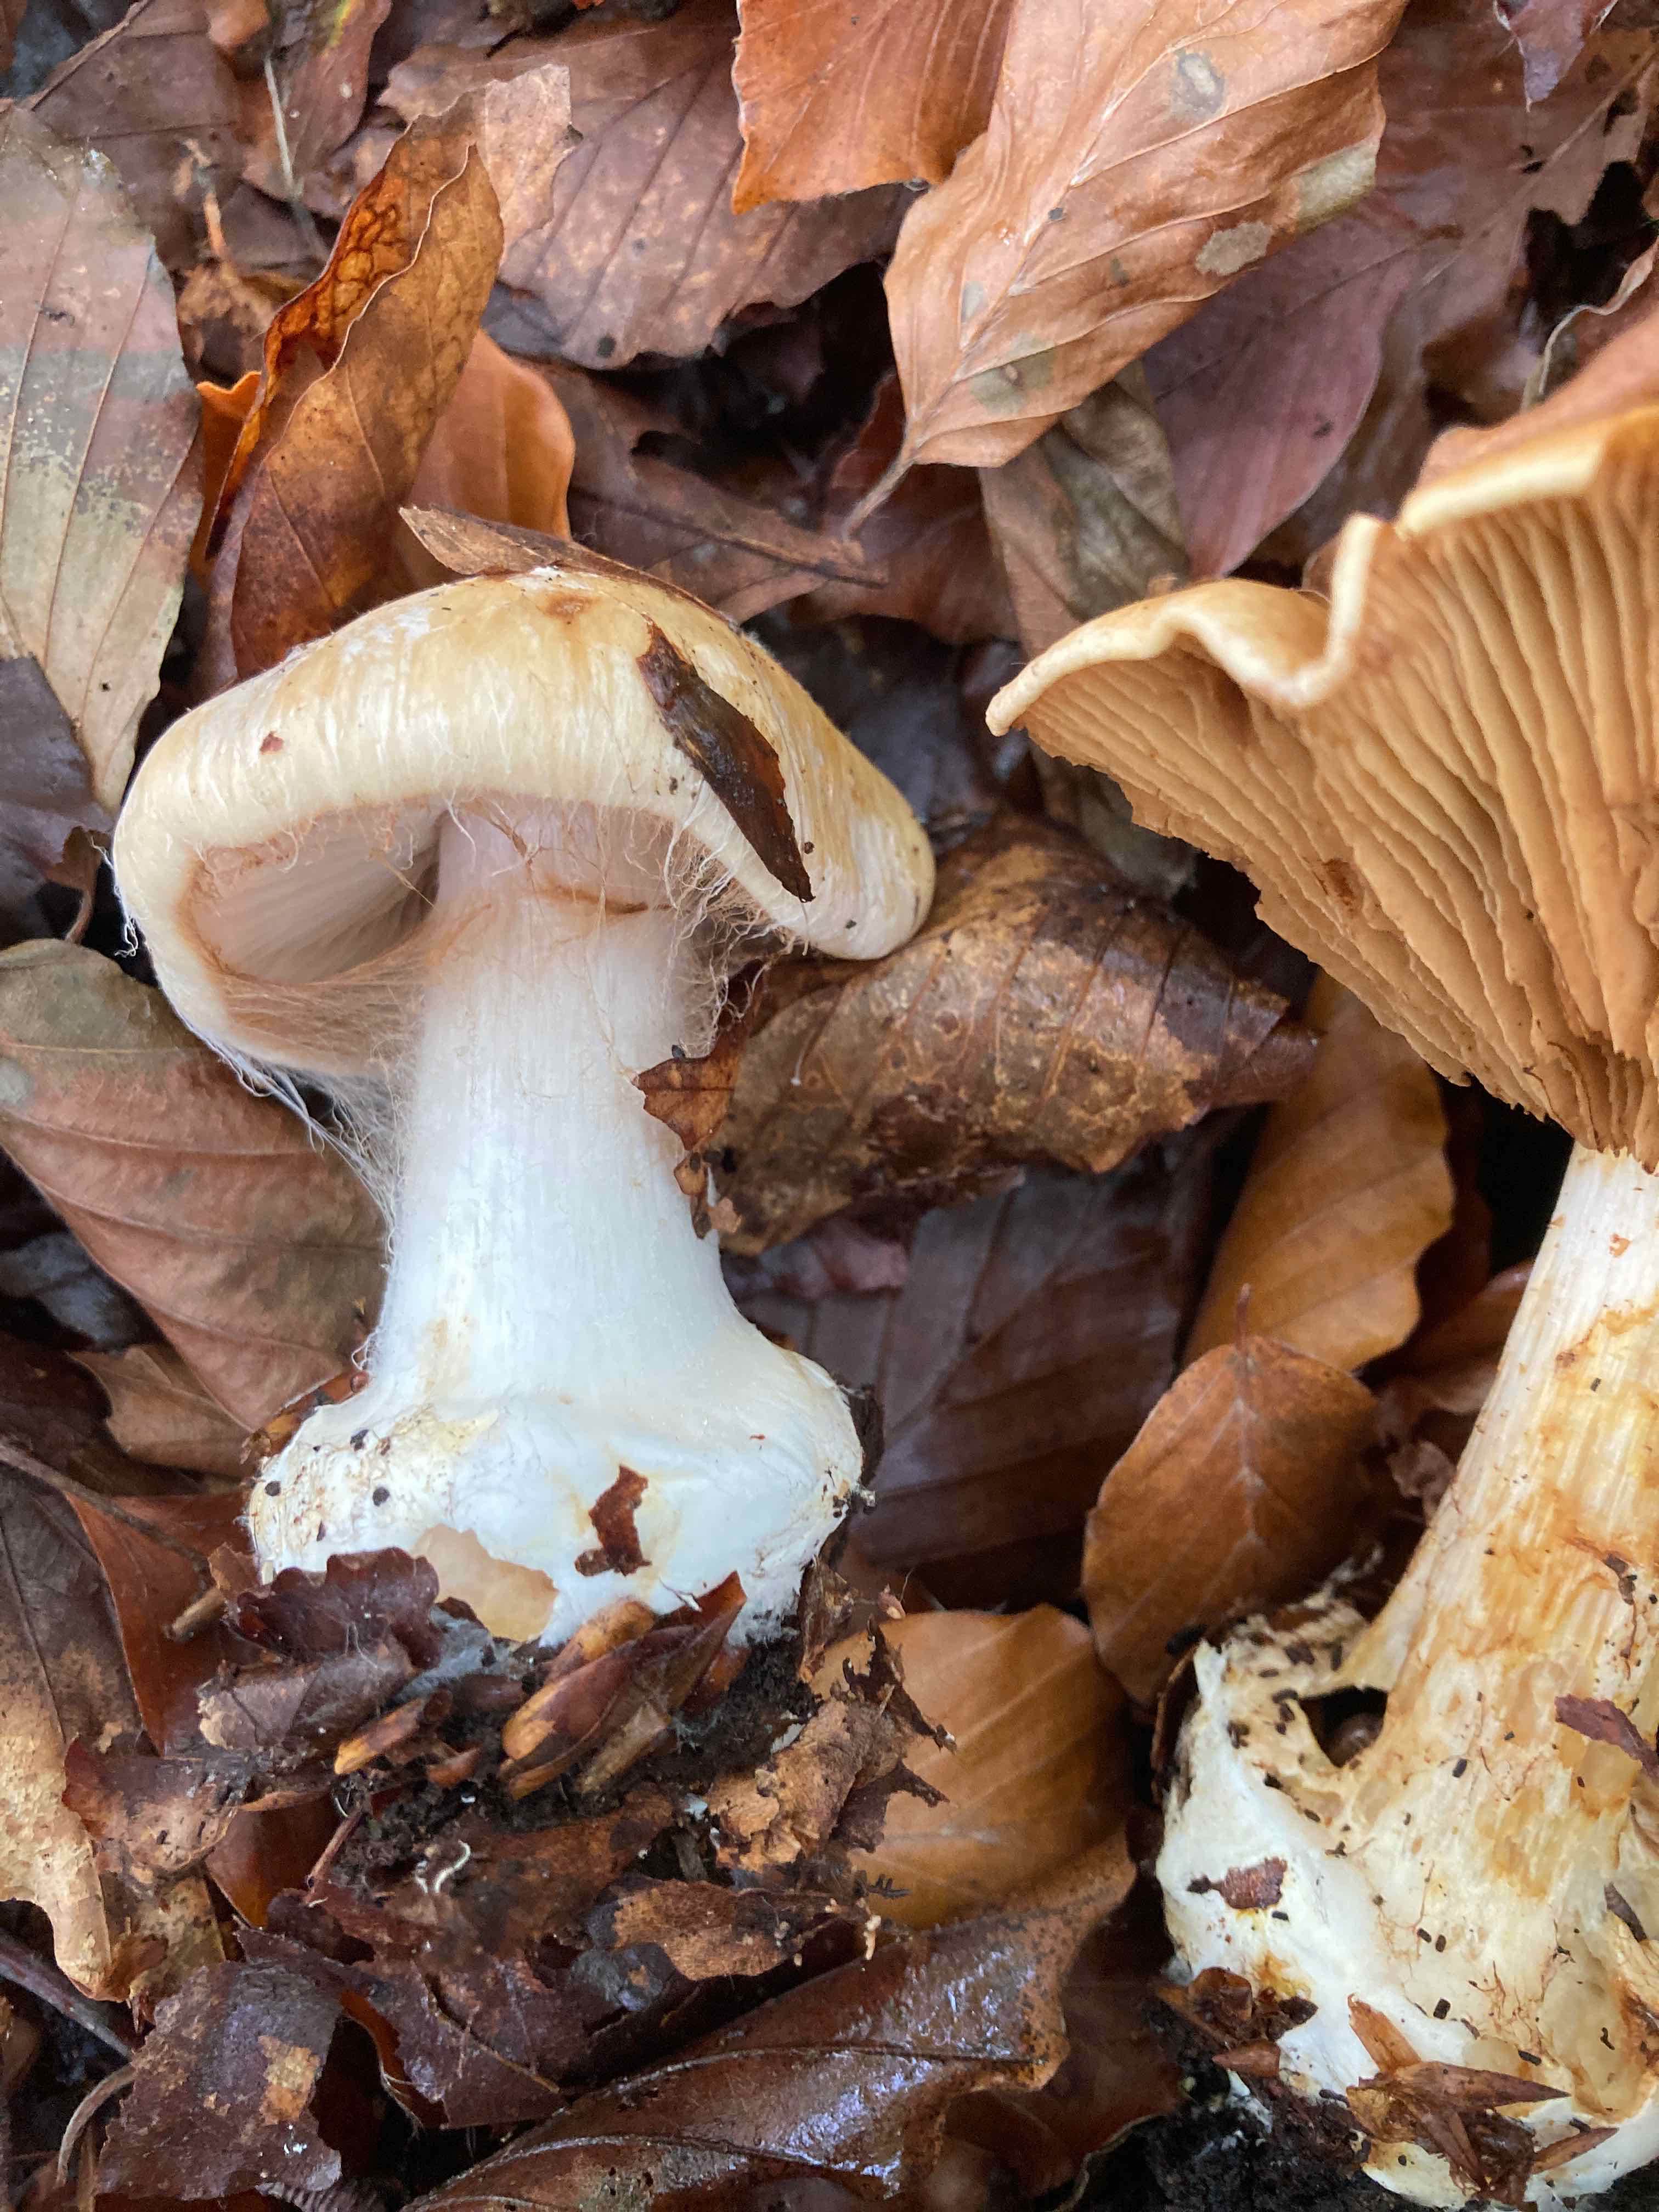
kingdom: Fungi
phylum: Basidiomycota
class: Agaricomycetes
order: Agaricales
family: Cortinariaceae
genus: Thaxterogaster
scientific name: Thaxterogaster talus
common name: knogle-slørhat
